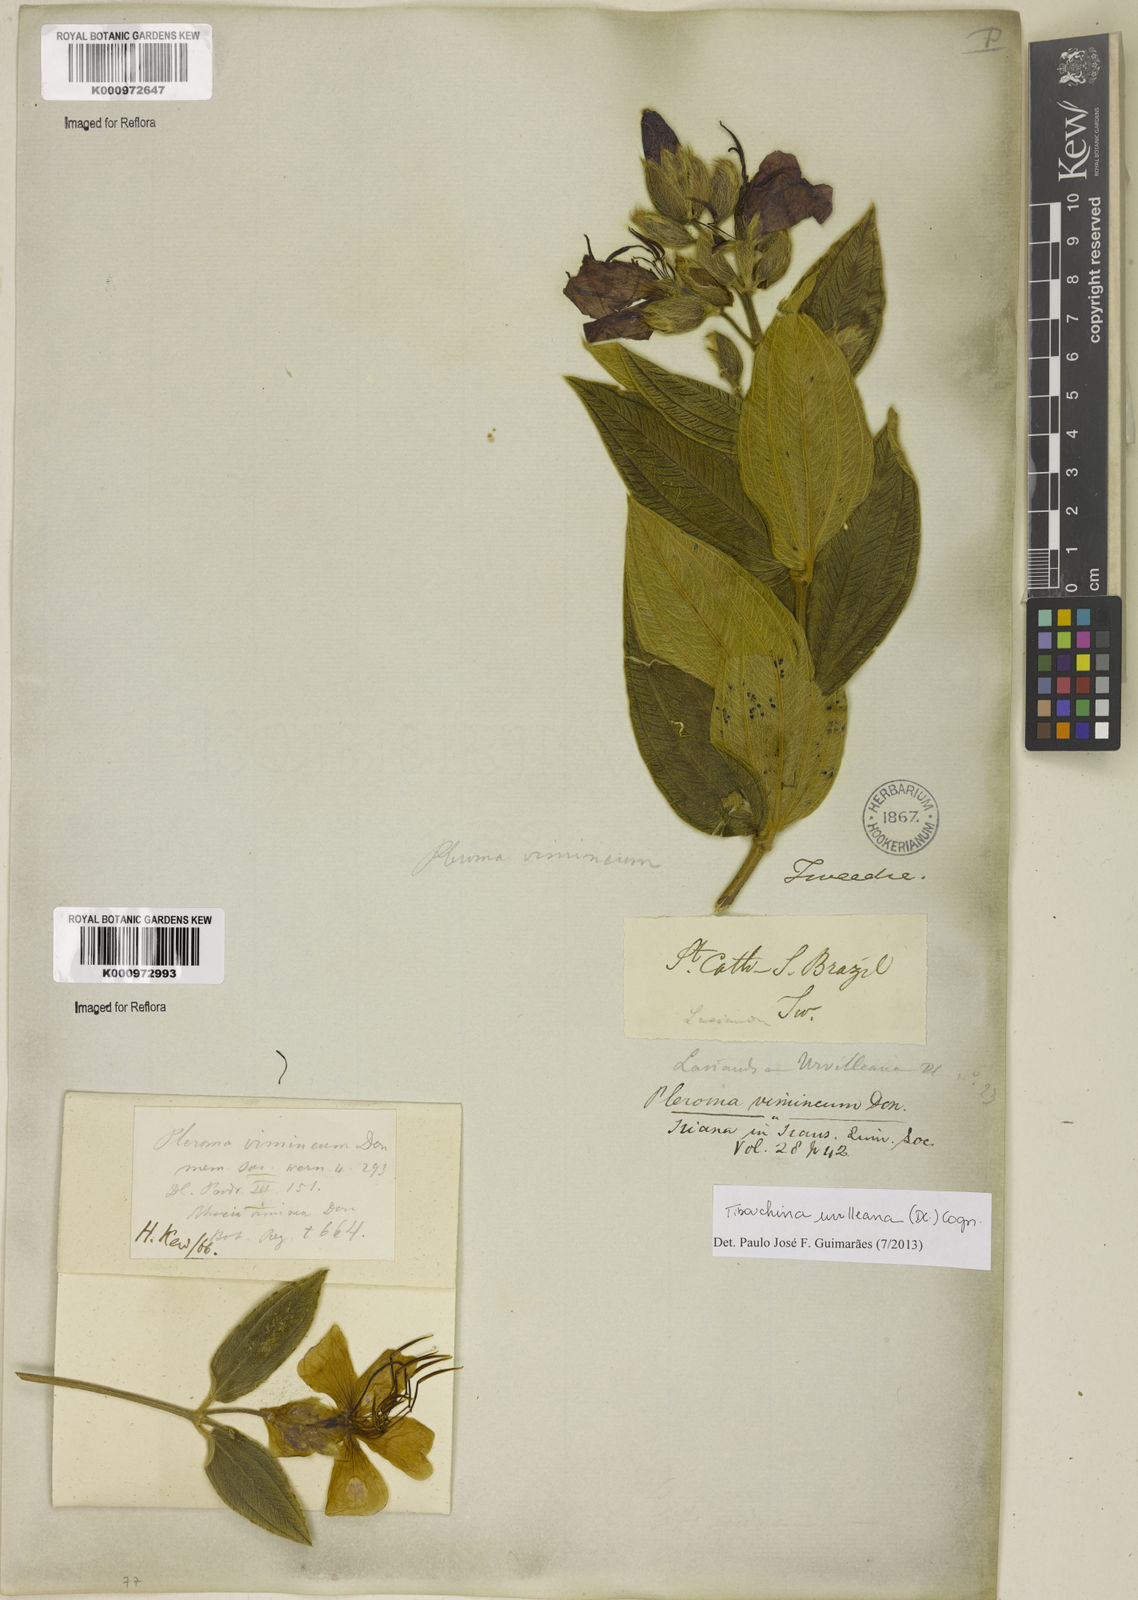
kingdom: Plantae
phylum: Tracheophyta
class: Magnoliopsida
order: Myrtales
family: Melastomataceae
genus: Pleroma
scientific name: Pleroma urvilleanum
